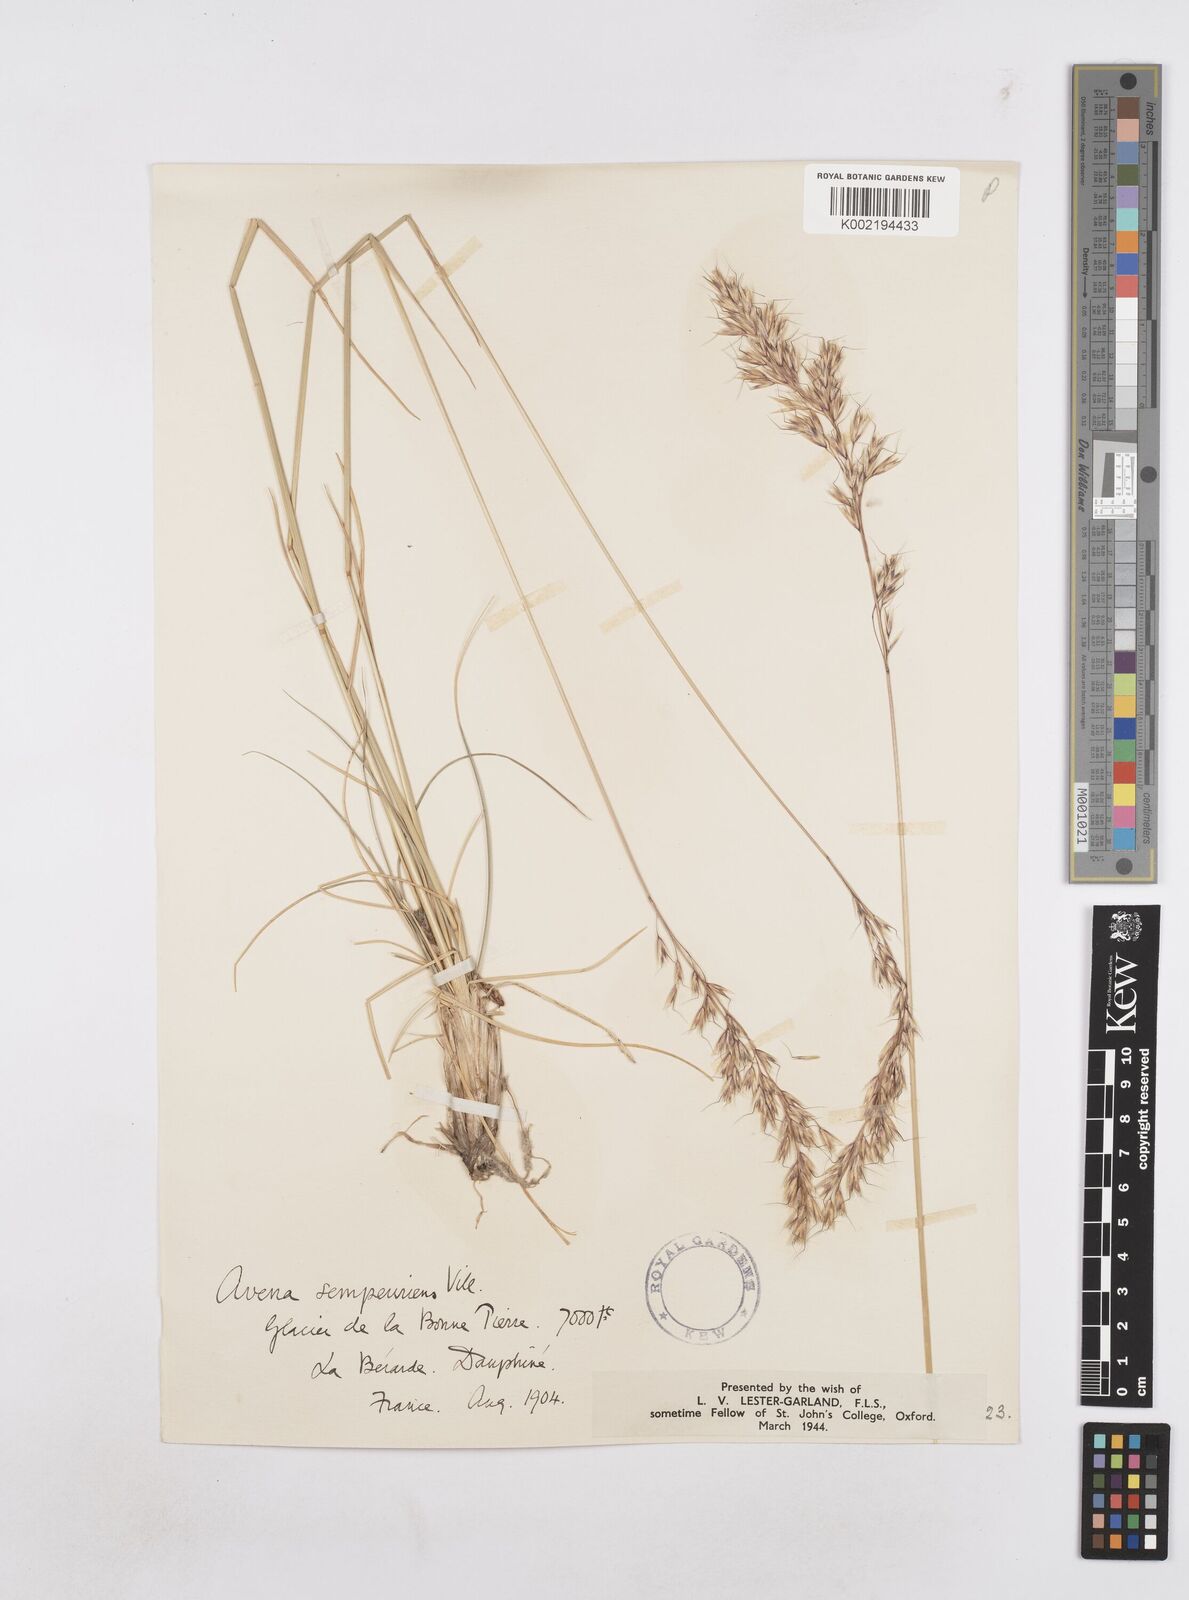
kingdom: Plantae
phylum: Tracheophyta
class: Liliopsida
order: Poales
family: Poaceae
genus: Helictotrichon
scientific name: Helictotrichon sempervirens
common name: Blue oat-grass
